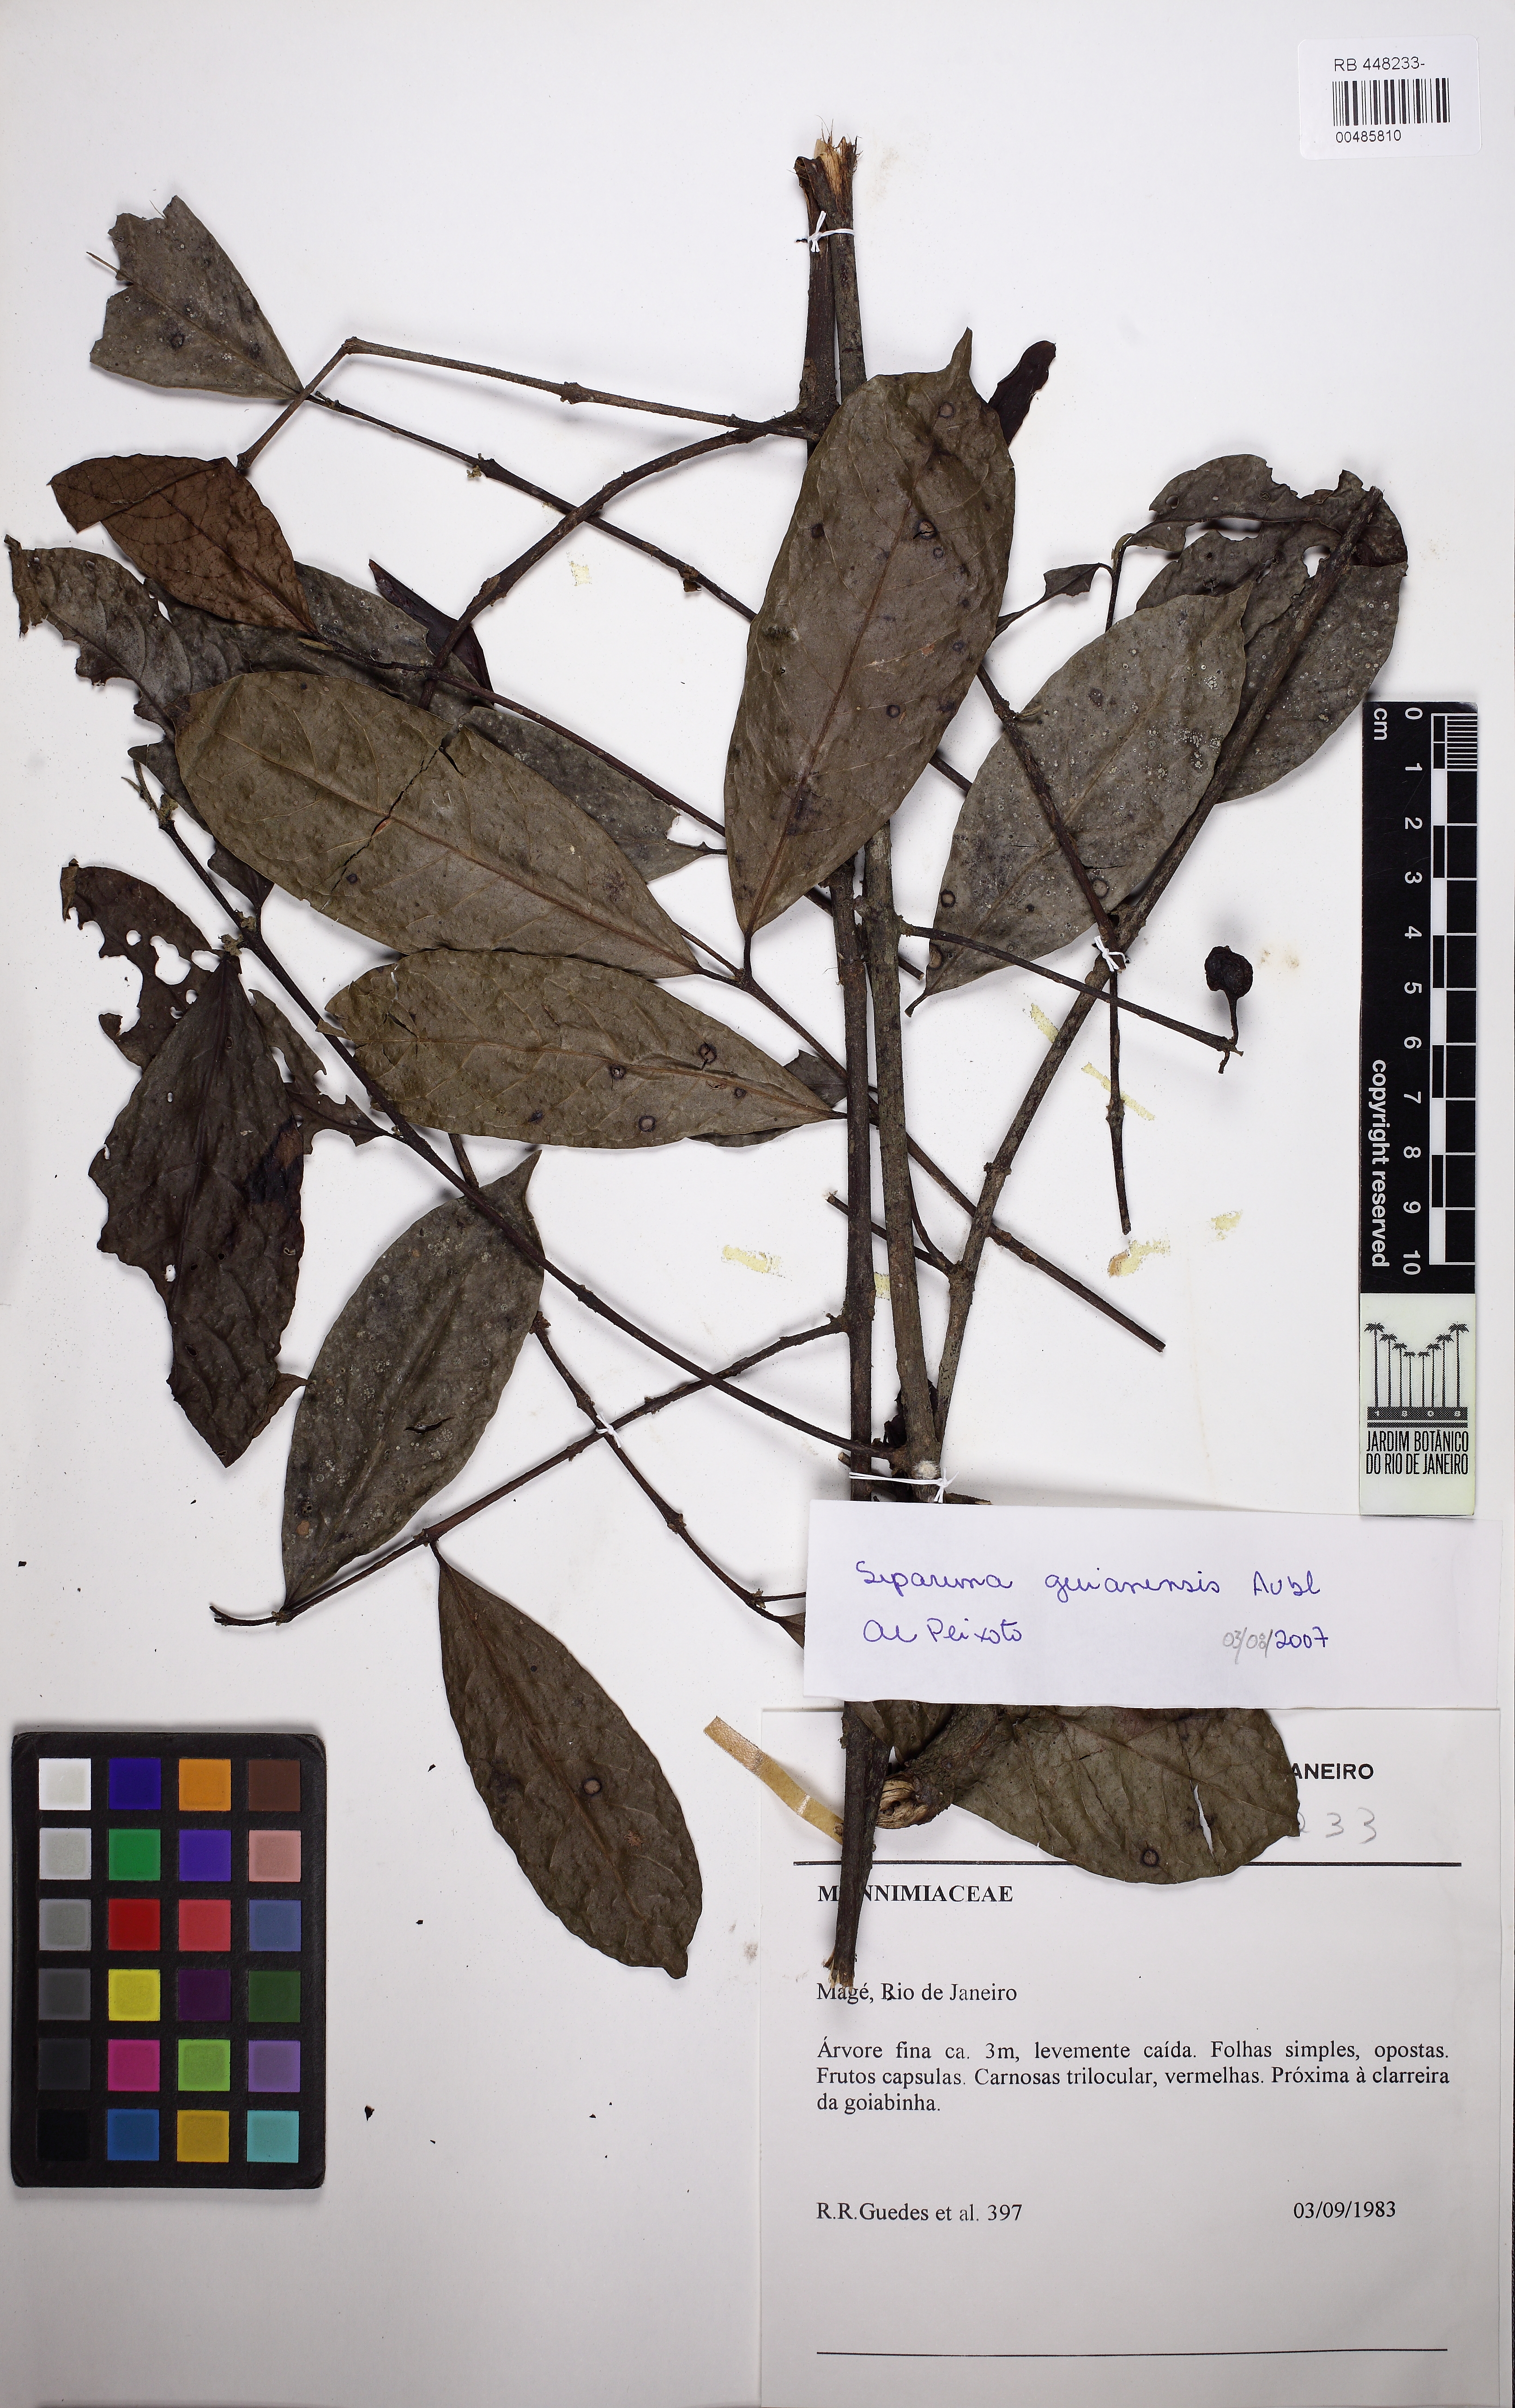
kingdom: Plantae
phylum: Tracheophyta
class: Magnoliopsida
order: Laurales
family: Siparunaceae
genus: Siparuna
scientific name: Siparuna guianensis
